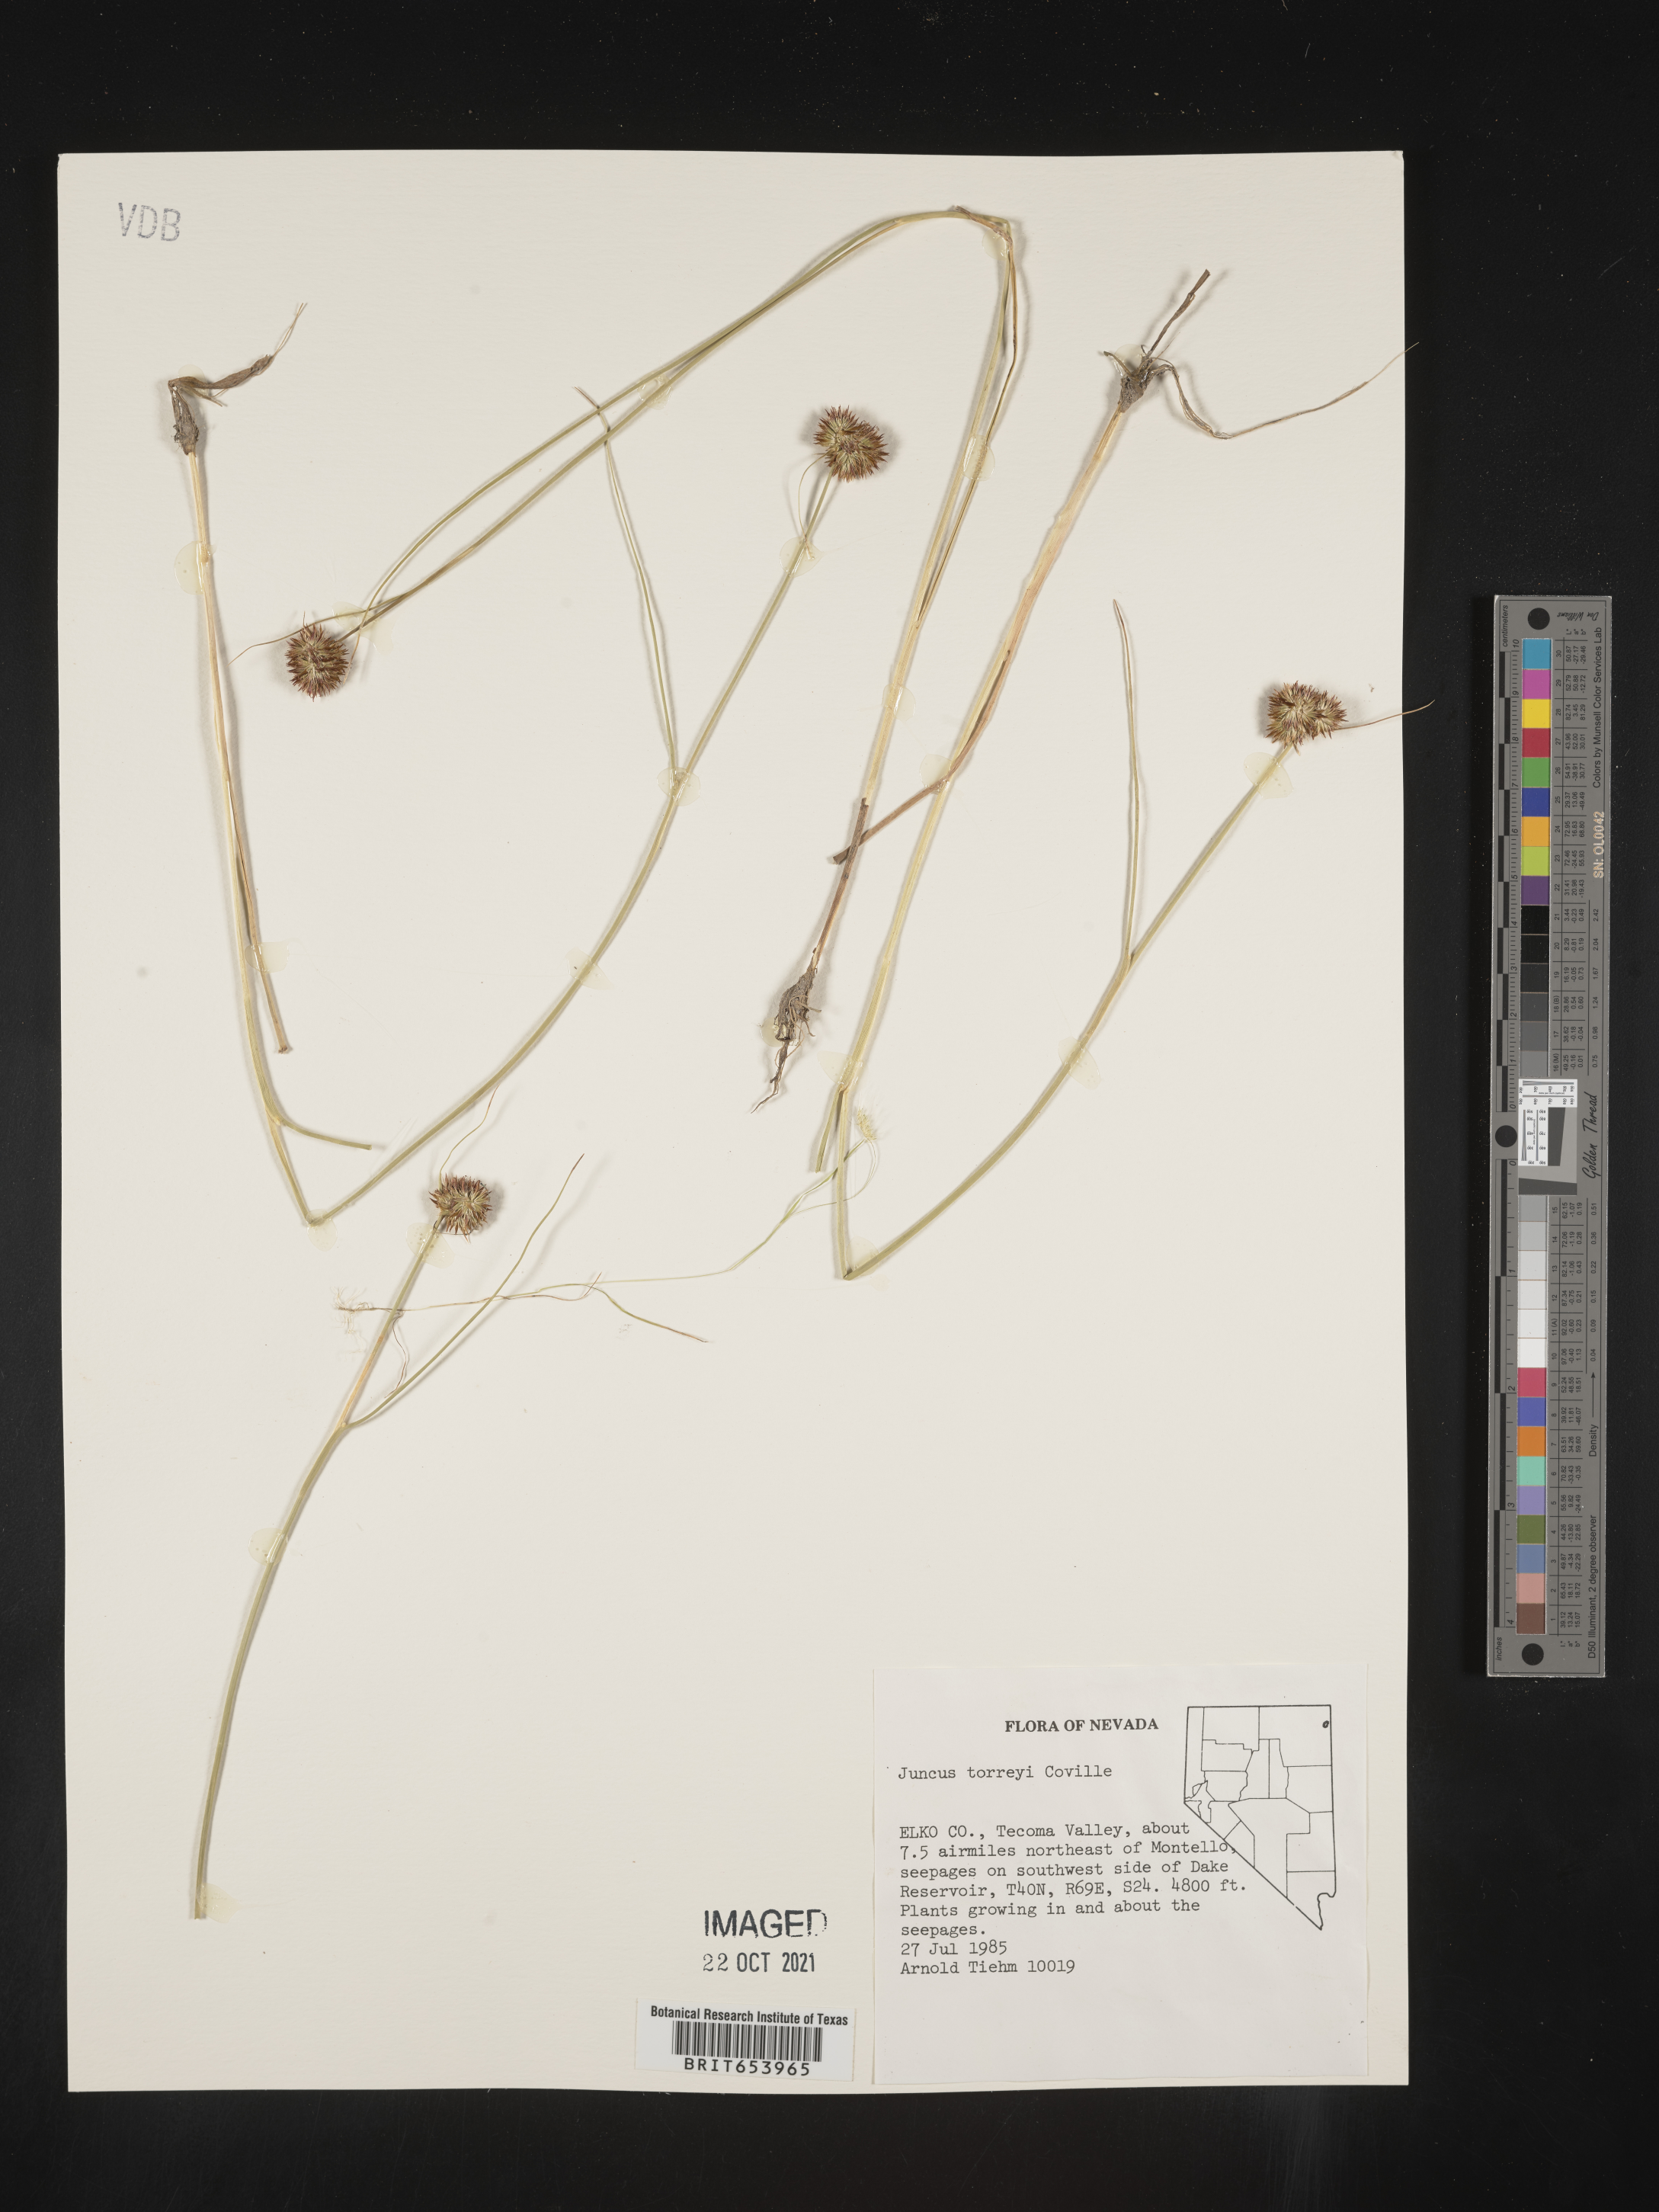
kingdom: Plantae
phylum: Tracheophyta
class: Liliopsida
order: Poales
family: Juncaceae
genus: Juncus
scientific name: Juncus torreyi
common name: Torrey's rush
